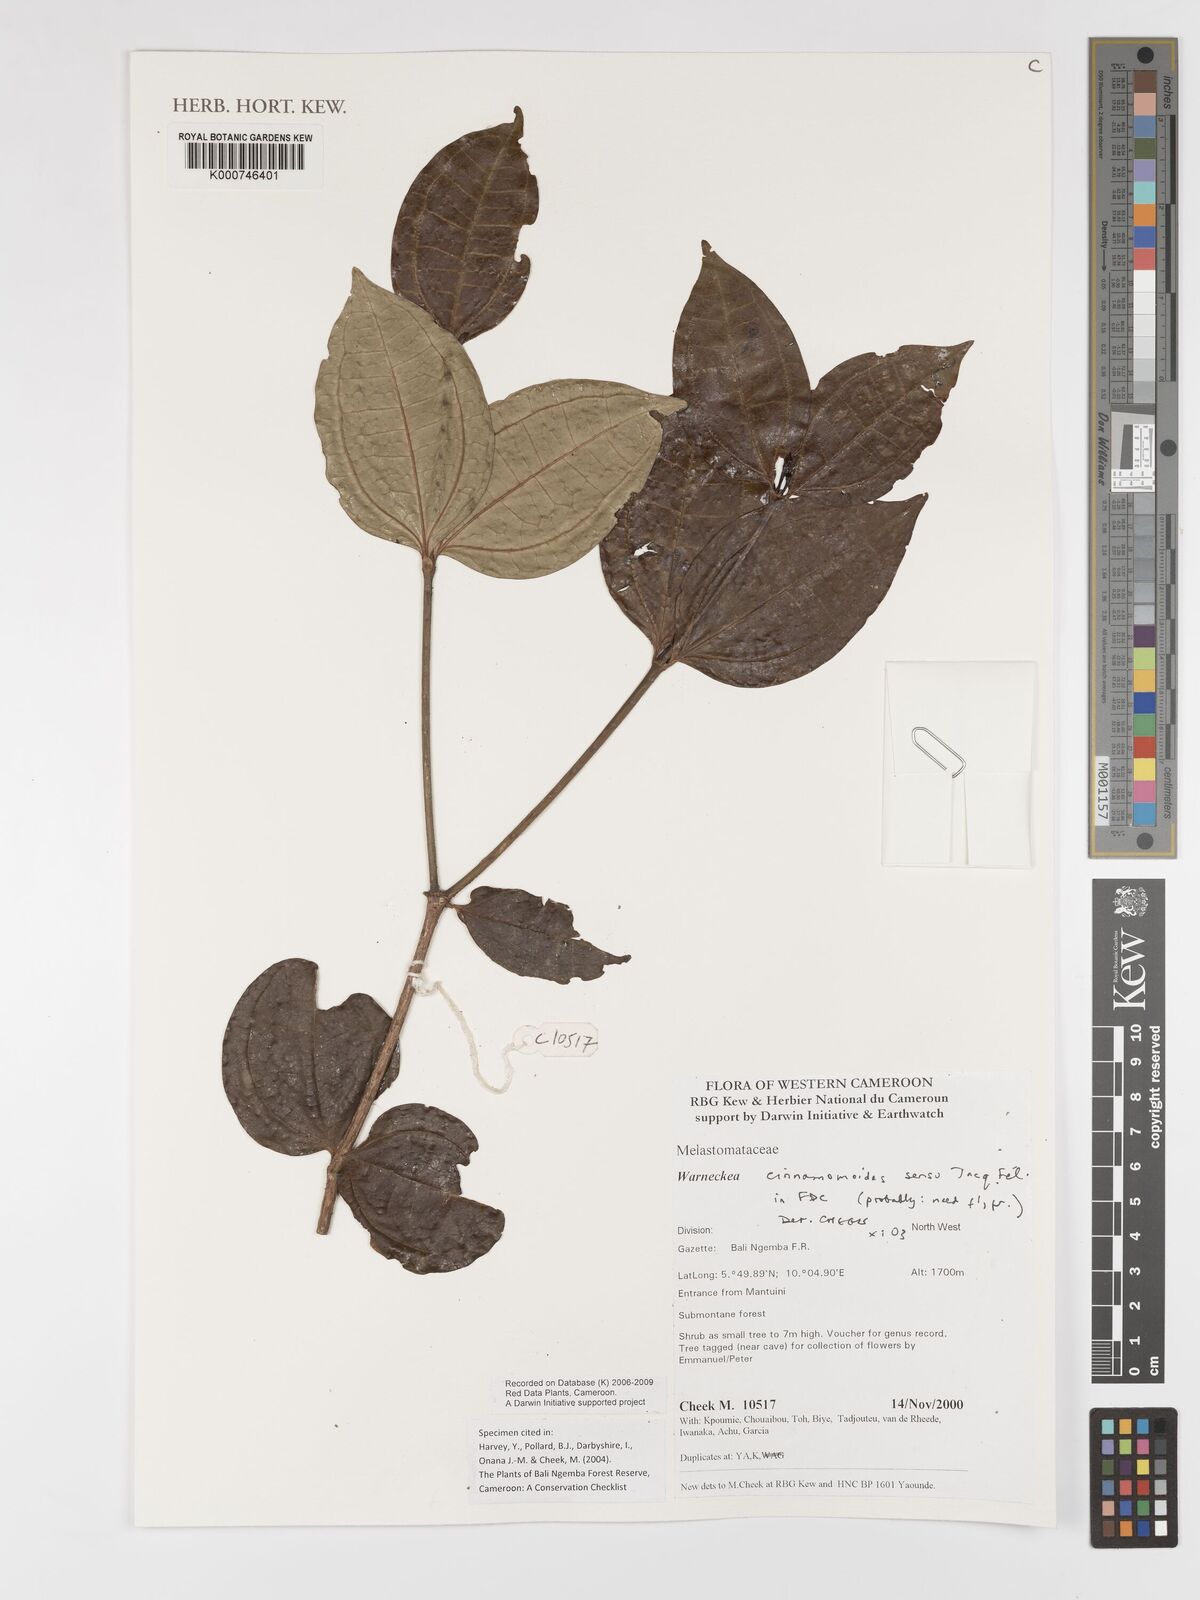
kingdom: Plantae
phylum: Tracheophyta
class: Magnoliopsida
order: Myrtales
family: Melastomataceae
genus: Warneckea
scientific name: Warneckea
